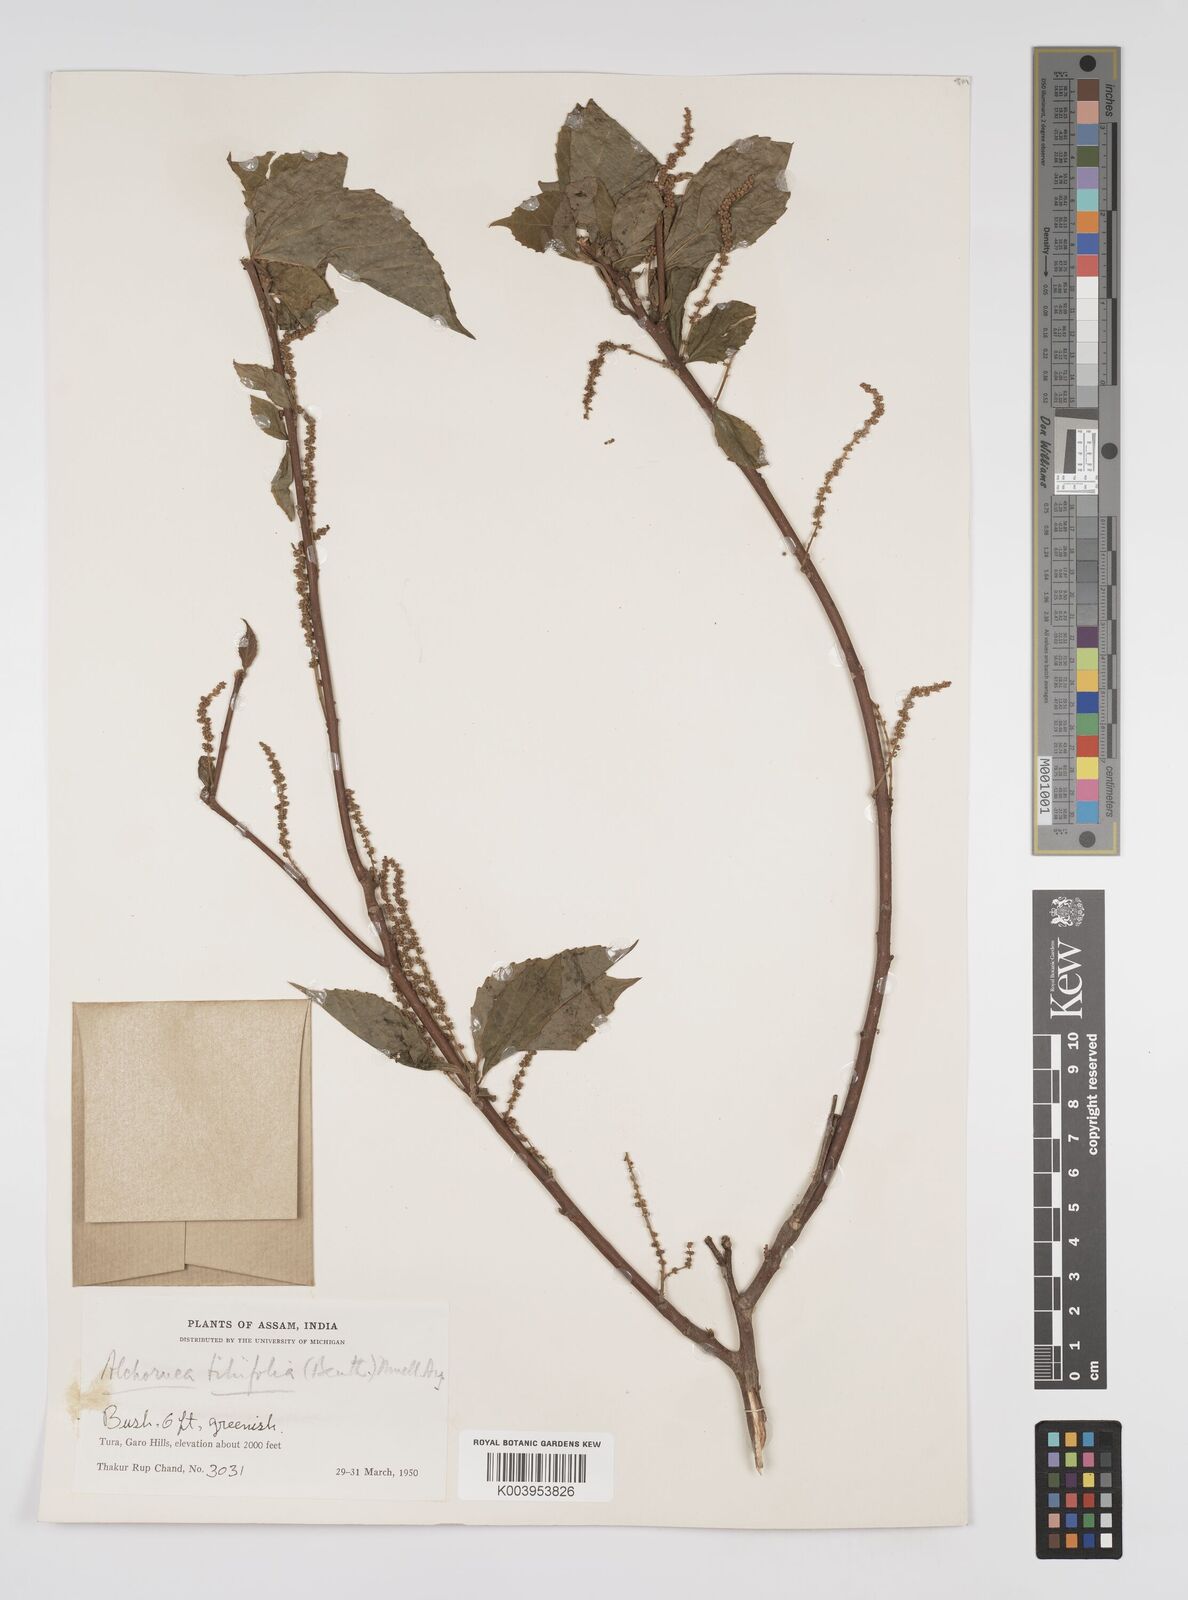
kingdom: Plantae
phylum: Tracheophyta
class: Magnoliopsida
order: Malpighiales
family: Euphorbiaceae
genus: Alchornea
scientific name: Alchornea tiliifolia
